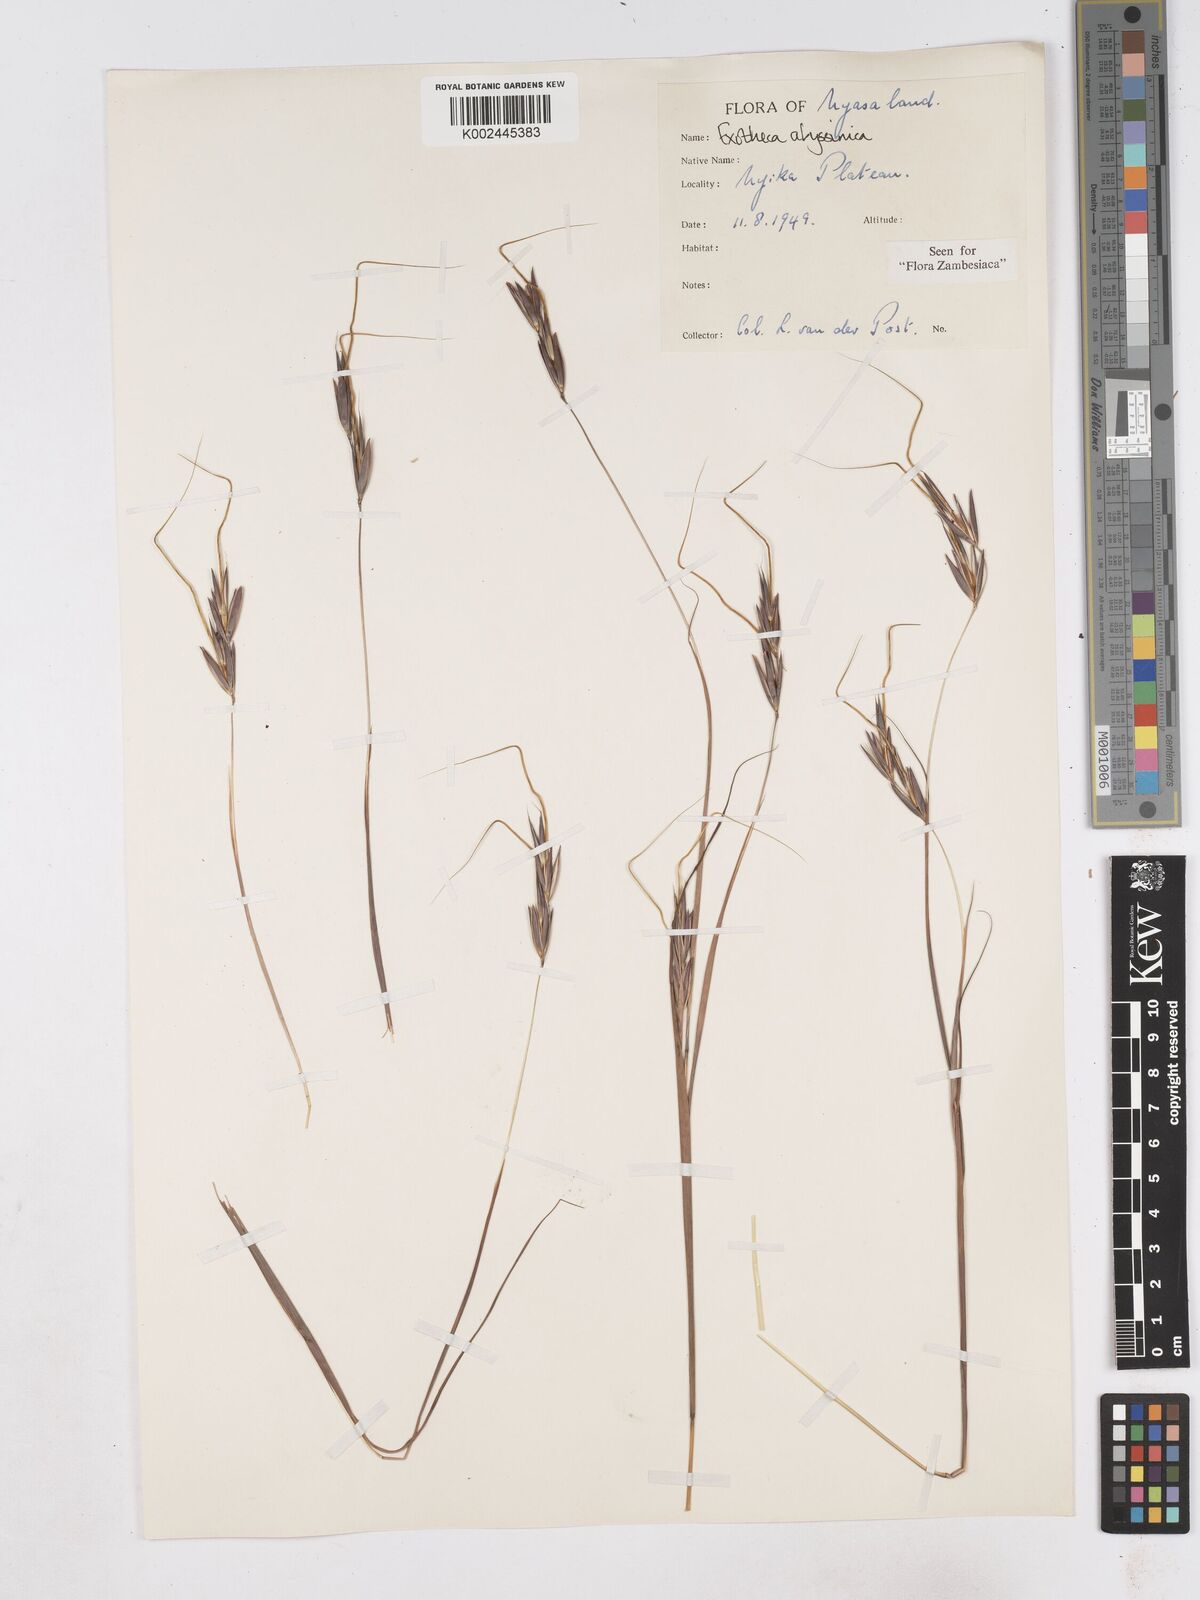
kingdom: Plantae
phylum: Tracheophyta
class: Liliopsida
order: Poales
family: Poaceae
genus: Exotheca
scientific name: Exotheca abyssinica
